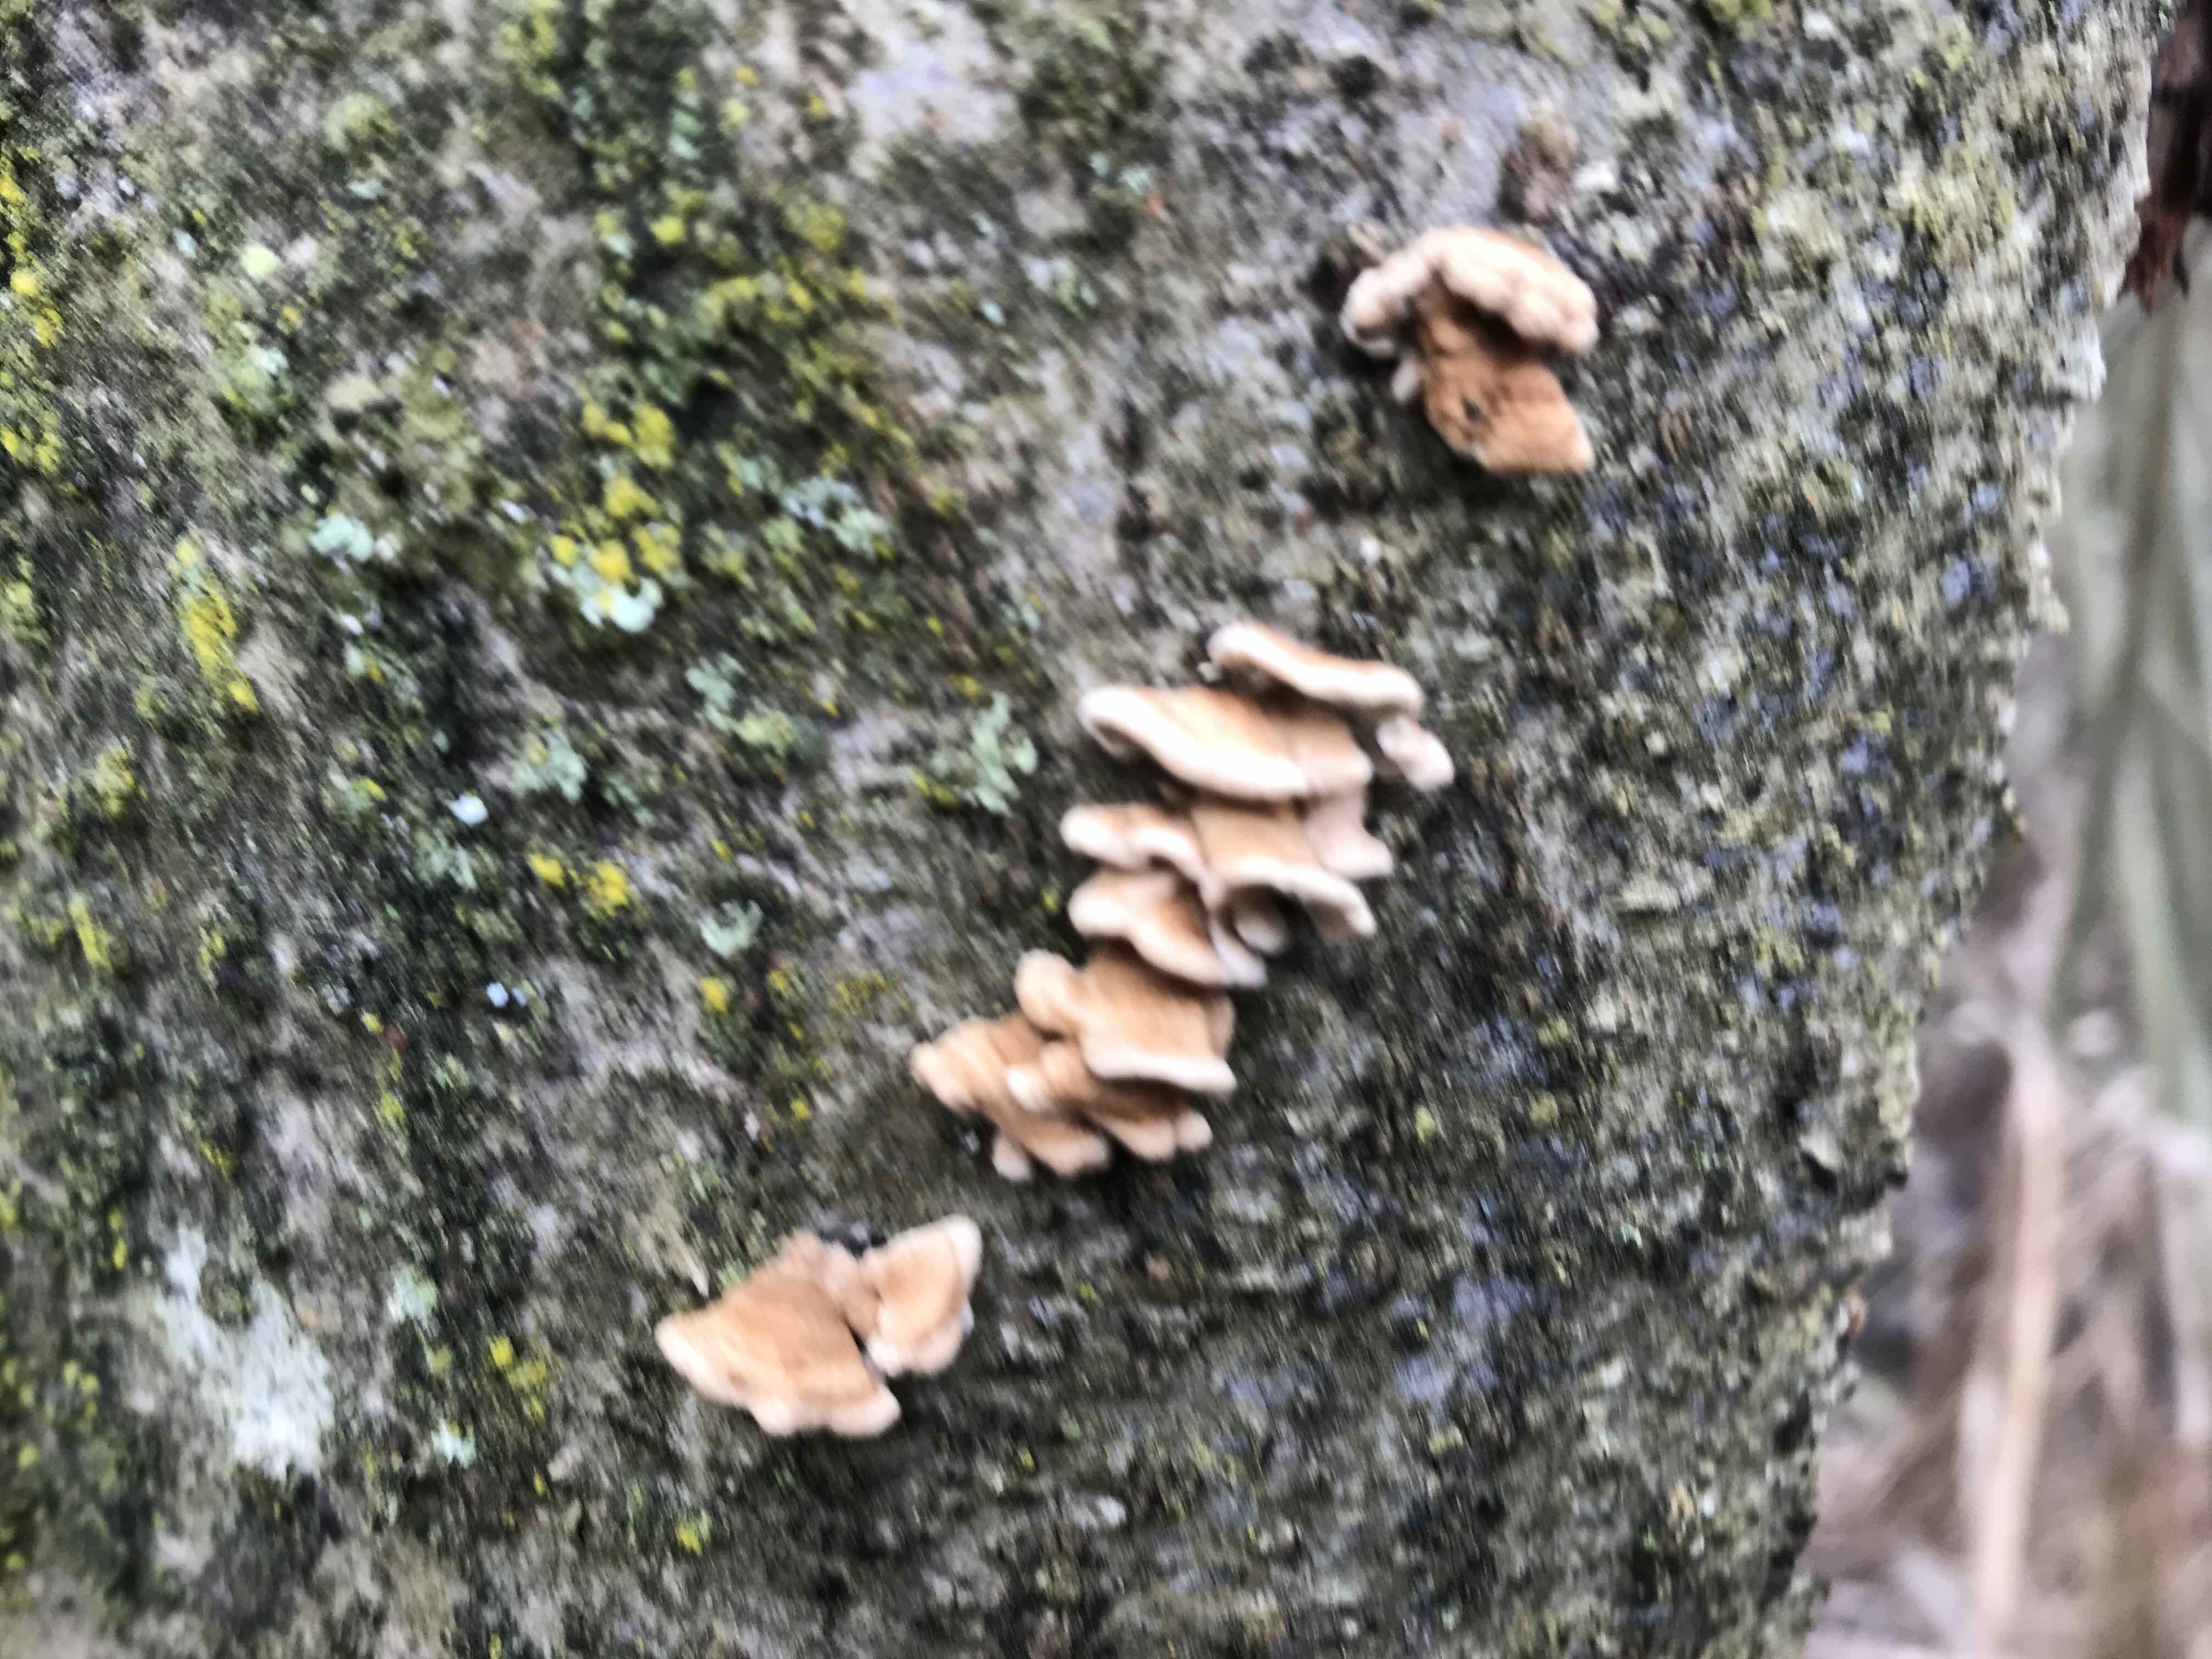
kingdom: Fungi
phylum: Basidiomycota
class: Agaricomycetes
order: Amylocorticiales
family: Amylocorticiaceae
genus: Plicaturopsis
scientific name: Plicaturopsis crispa
